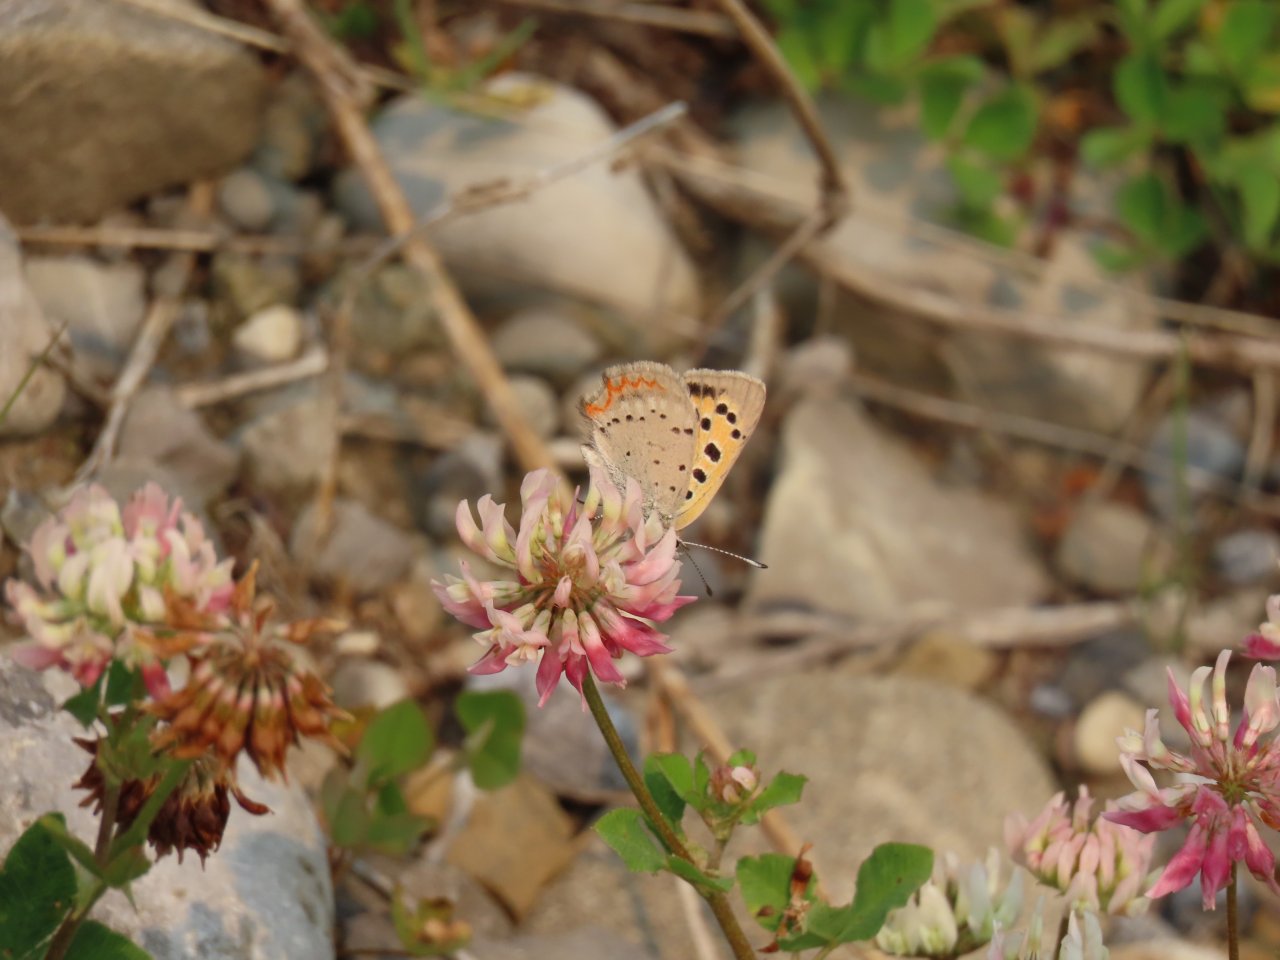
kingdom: Animalia
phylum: Arthropoda
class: Insecta
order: Lepidoptera
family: Lycaenidae
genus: Lycaena
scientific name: Lycaena phlaeas
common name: American Copper
